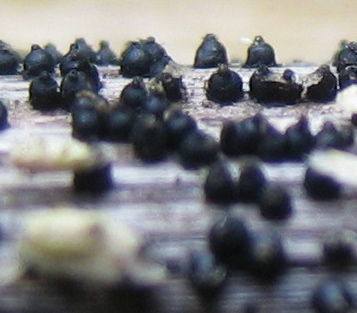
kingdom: Fungi
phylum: Ascomycota
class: Dothideomycetes
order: Pleosporales
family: Leptosphaeriaceae
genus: Leptosphaeria
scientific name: Leptosphaeria
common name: kulkegle
